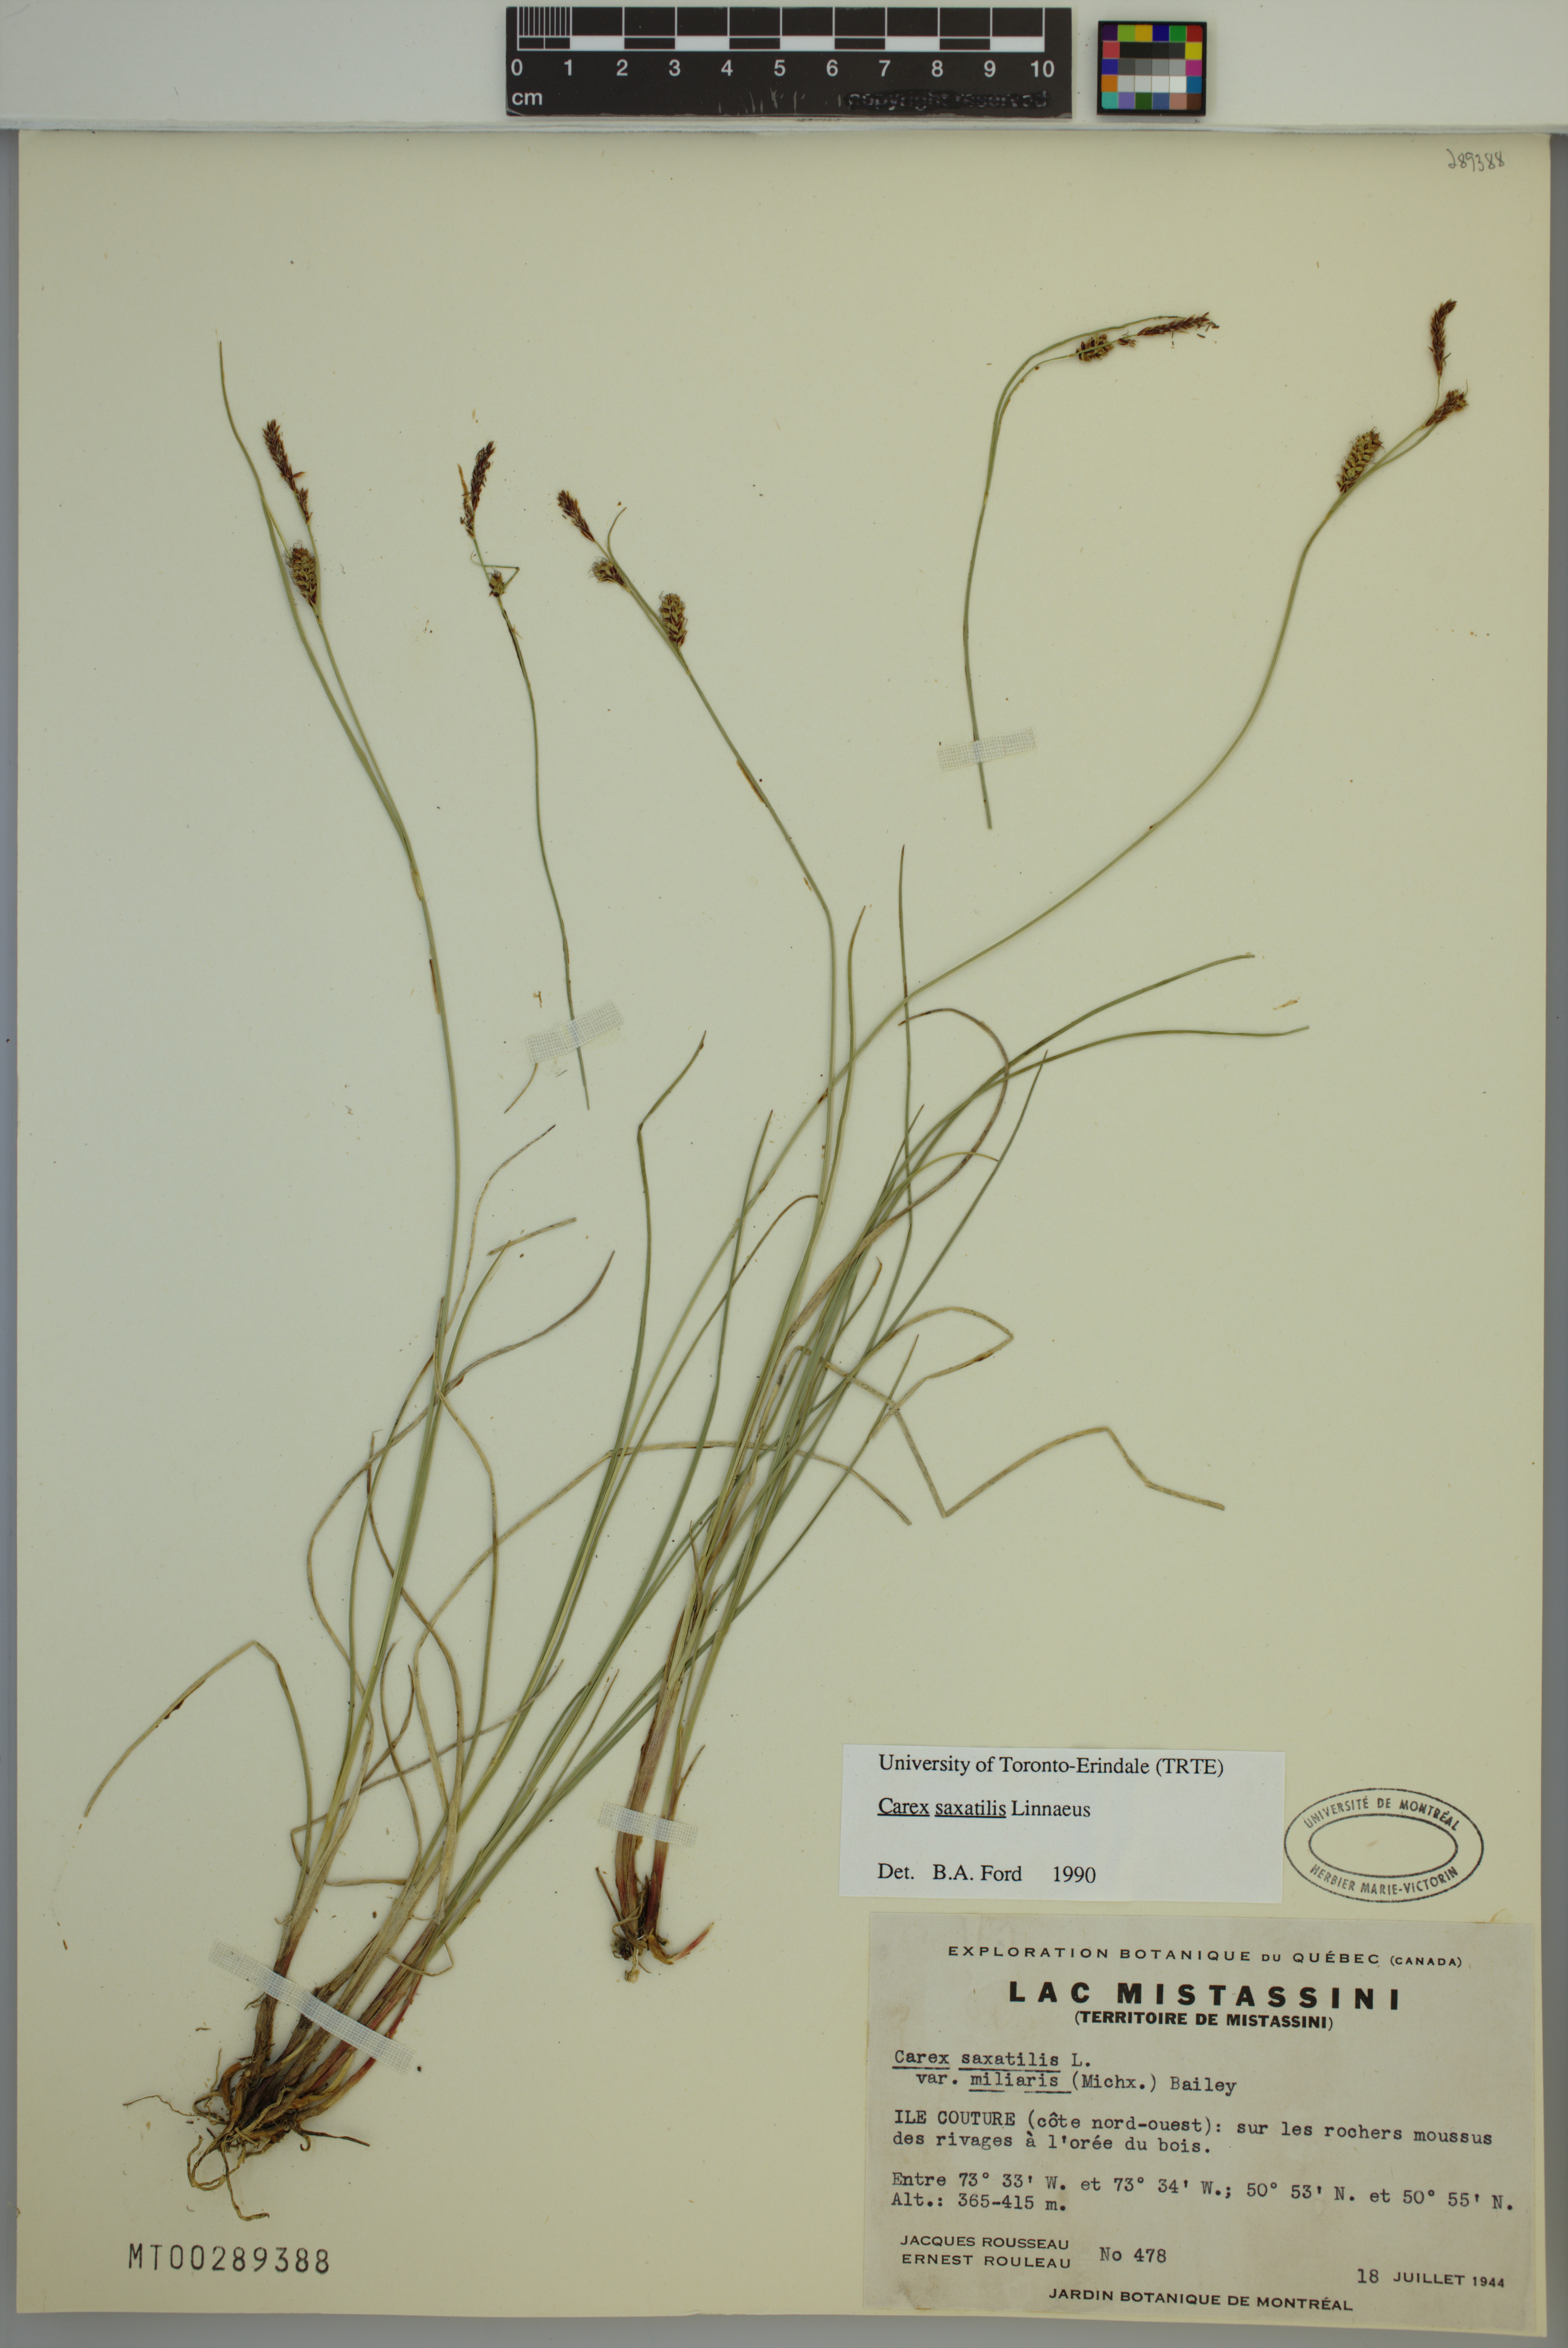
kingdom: Plantae
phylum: Tracheophyta
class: Liliopsida
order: Poales
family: Cyperaceae
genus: Carex
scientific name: Carex saxatilis
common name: Russet sedge
